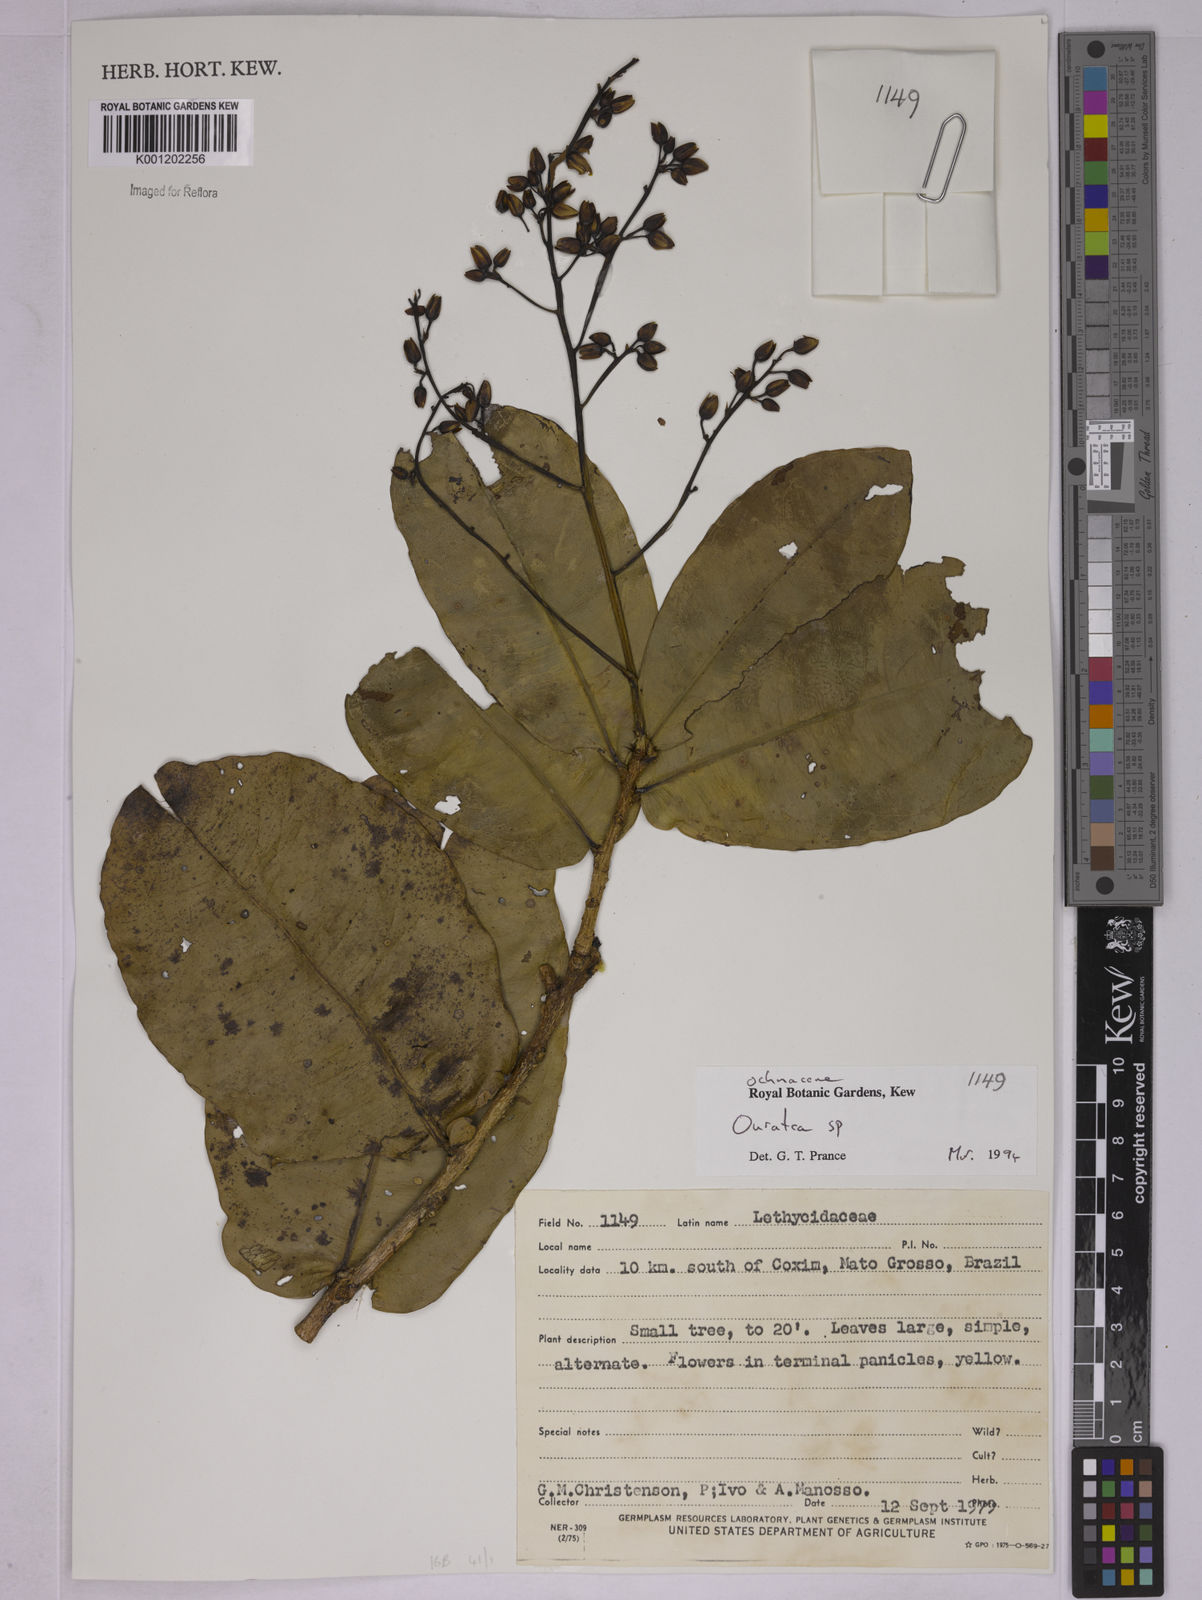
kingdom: Plantae
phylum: Tracheophyta
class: Magnoliopsida
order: Malpighiales
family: Ochnaceae
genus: Ouratea
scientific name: Ouratea
